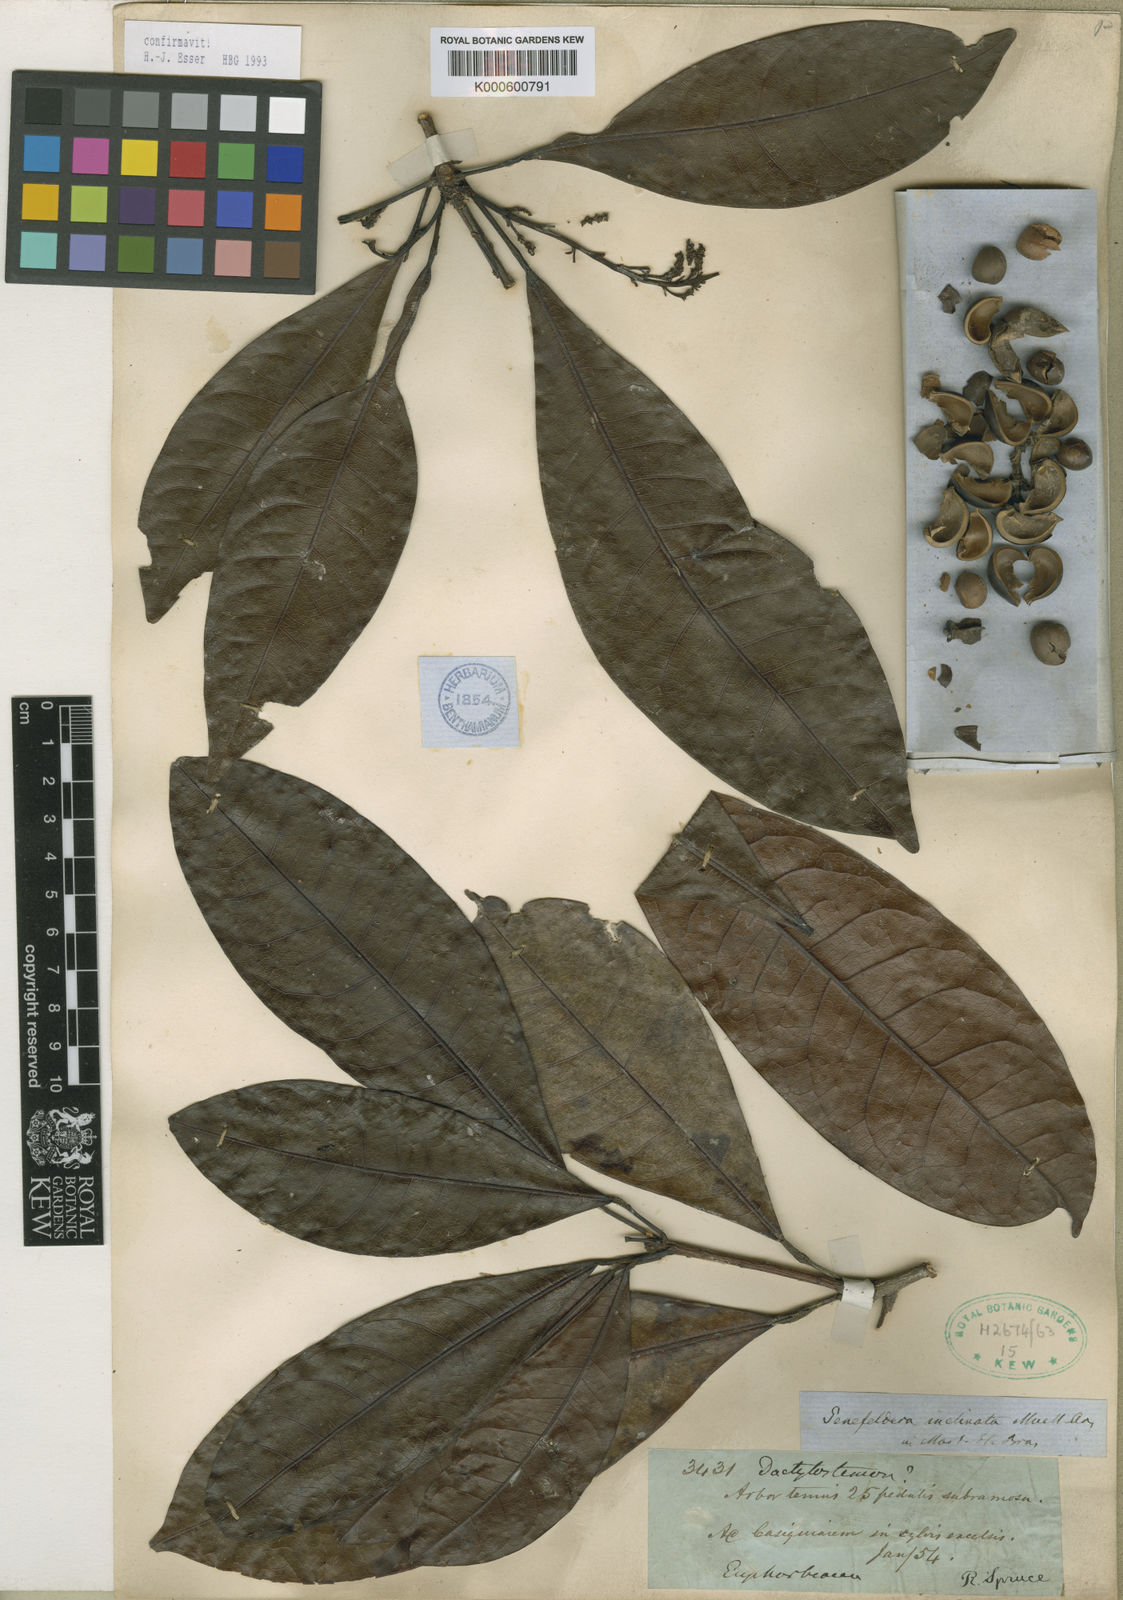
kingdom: Plantae
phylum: Tracheophyta
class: Magnoliopsida
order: Malpighiales
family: Euphorbiaceae
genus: Pseudosenefeldera
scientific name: Pseudosenefeldera
